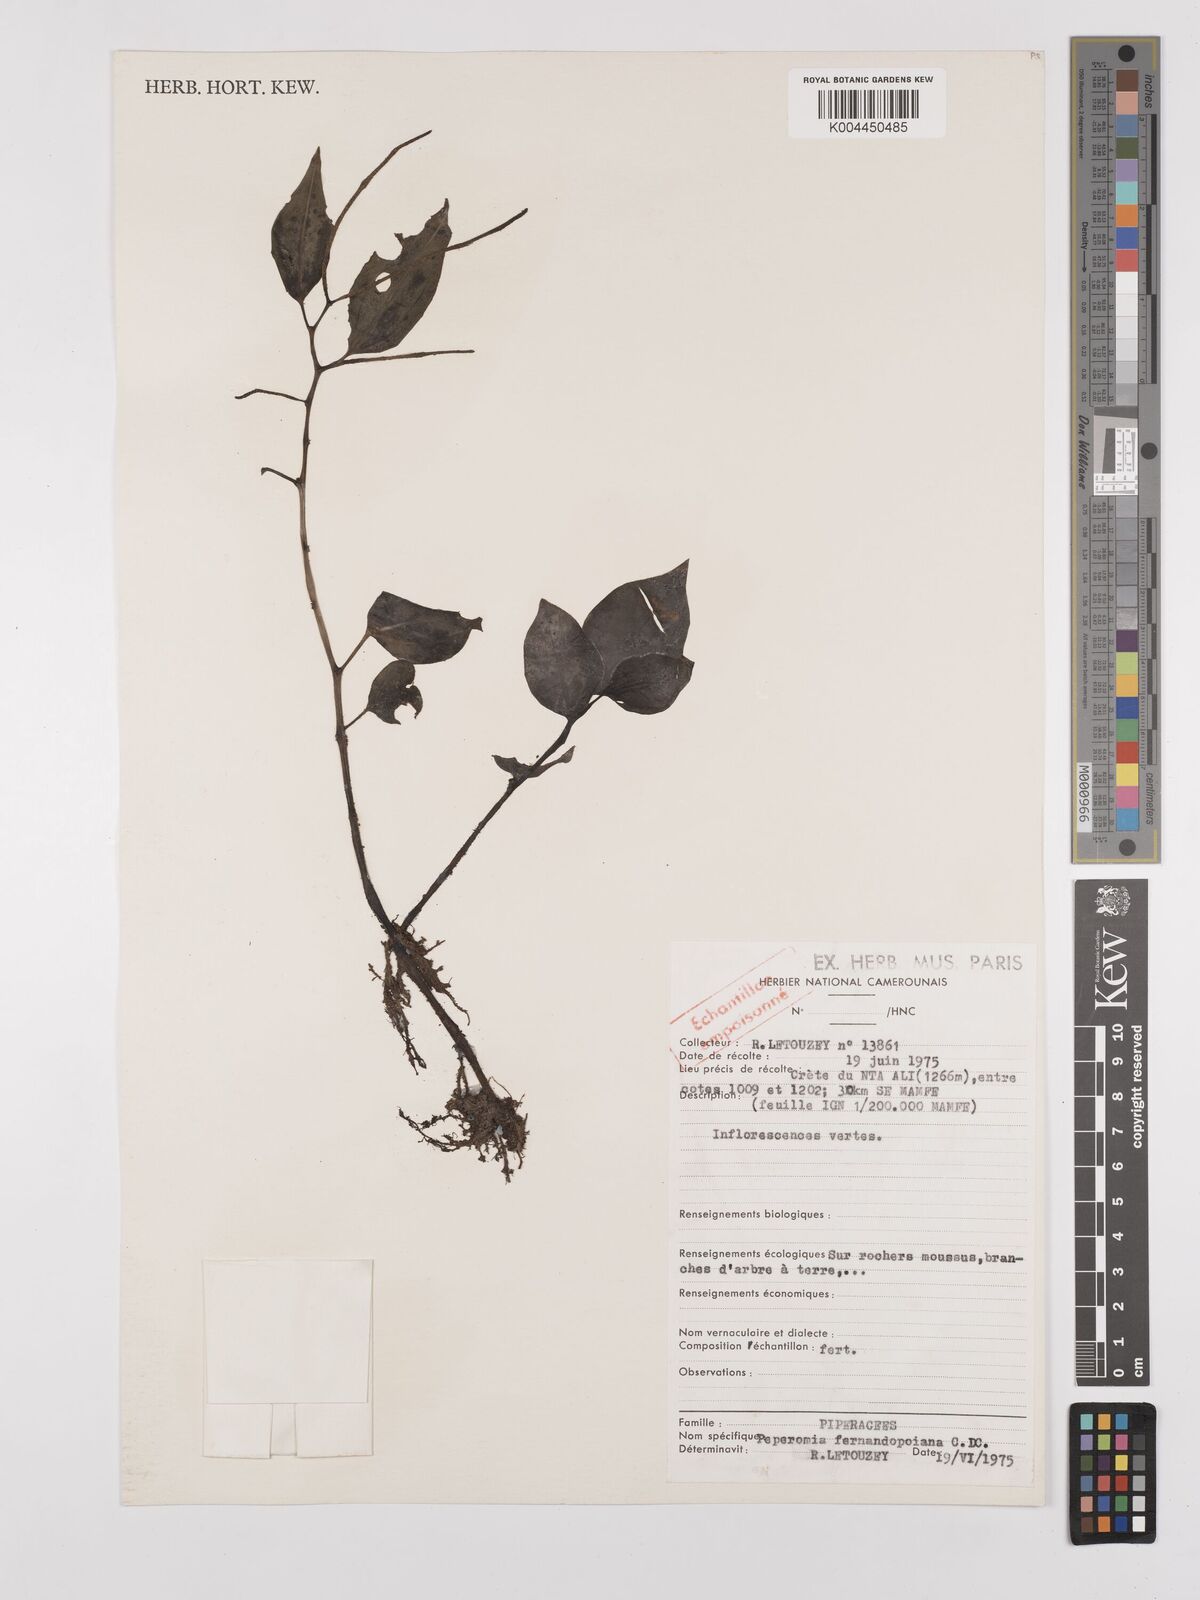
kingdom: Plantae
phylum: Tracheophyta
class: Magnoliopsida
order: Piperales
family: Piperaceae
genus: Peperomia
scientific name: Peperomia fernandopoiana
